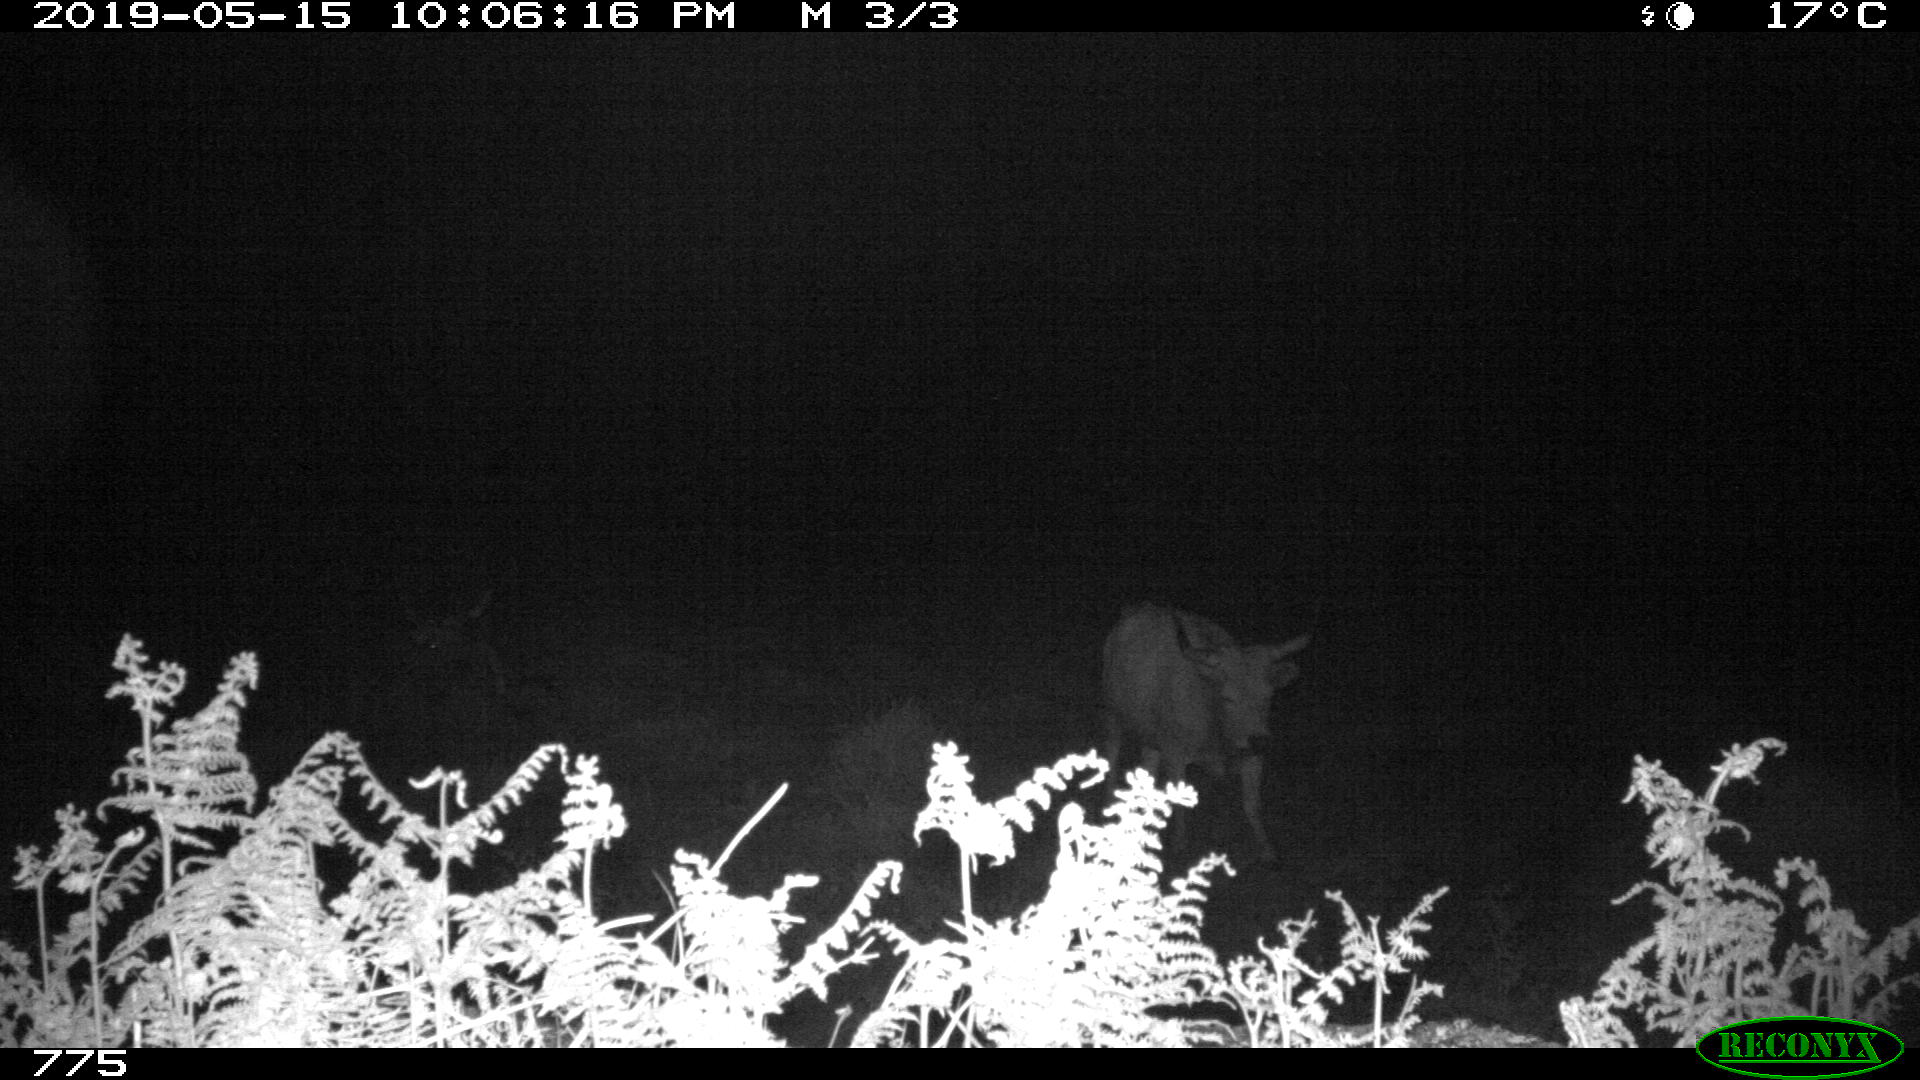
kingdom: Animalia
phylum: Chordata
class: Mammalia
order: Artiodactyla
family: Bovidae
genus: Bos
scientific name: Bos taurus
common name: Domesticated cattle
